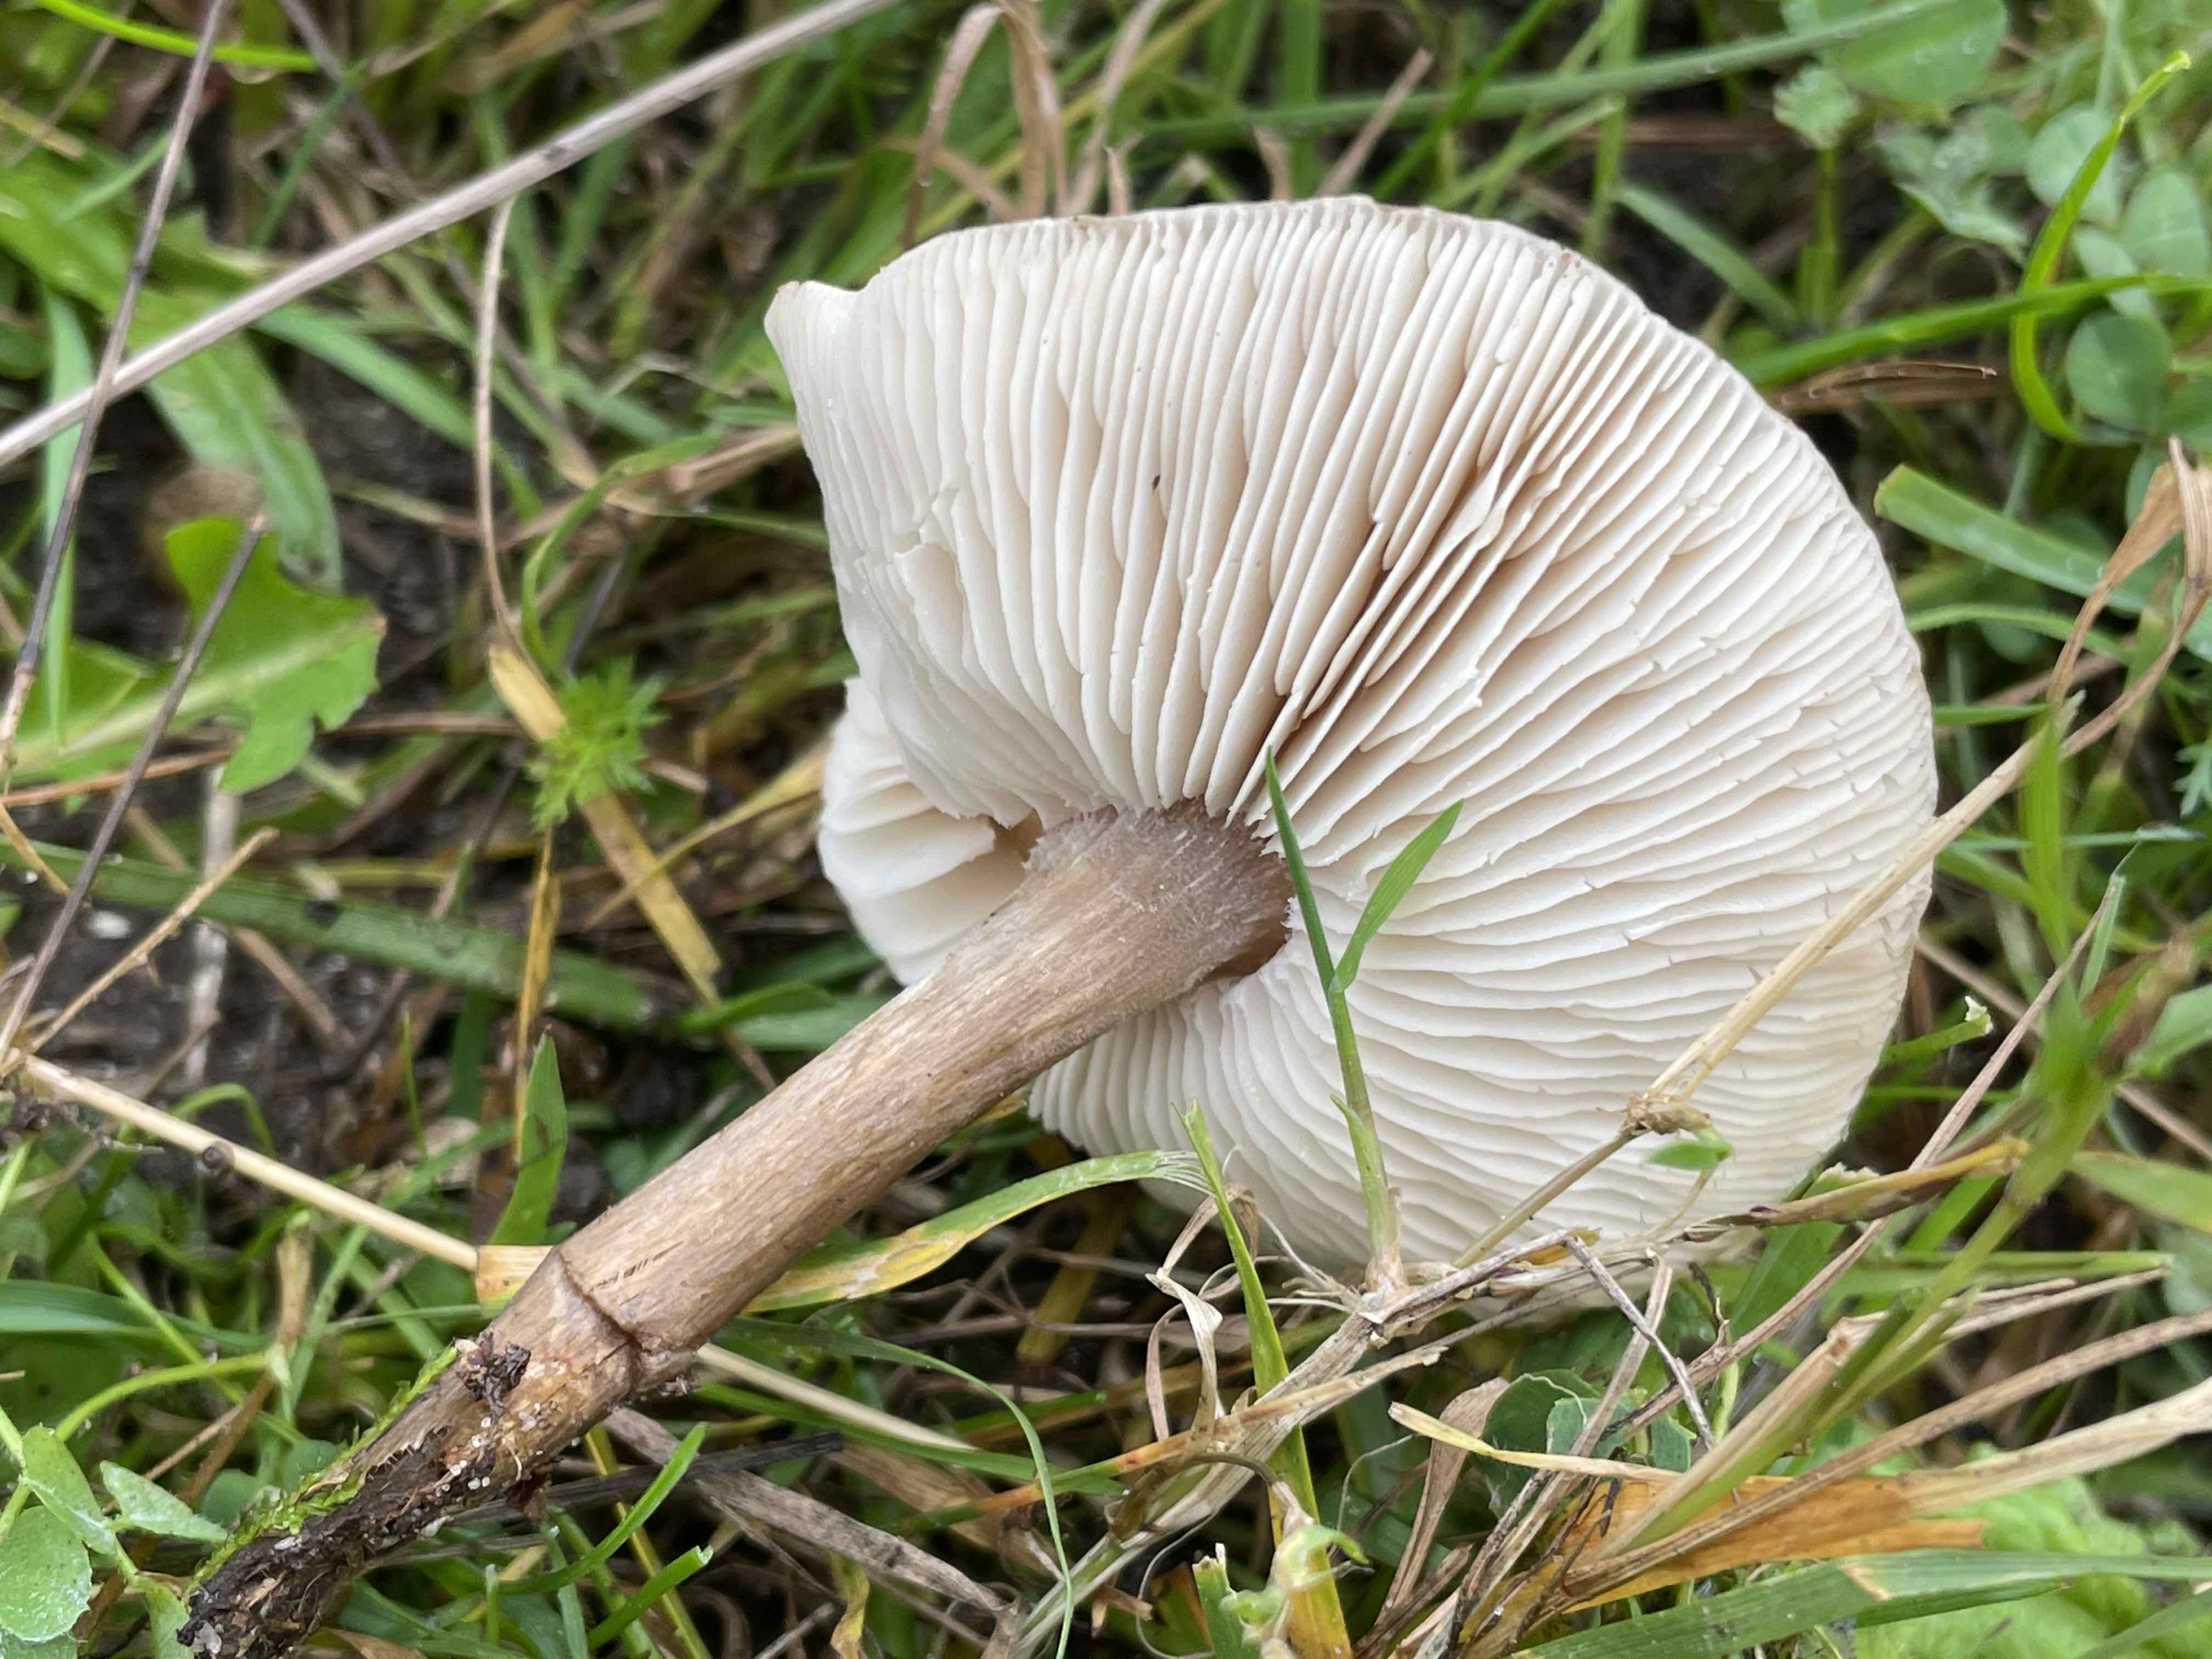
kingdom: Fungi
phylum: Basidiomycota
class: Agaricomycetes
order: Agaricales
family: Tricholomataceae
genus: Melanoleuca
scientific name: Melanoleuca
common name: munkehat
